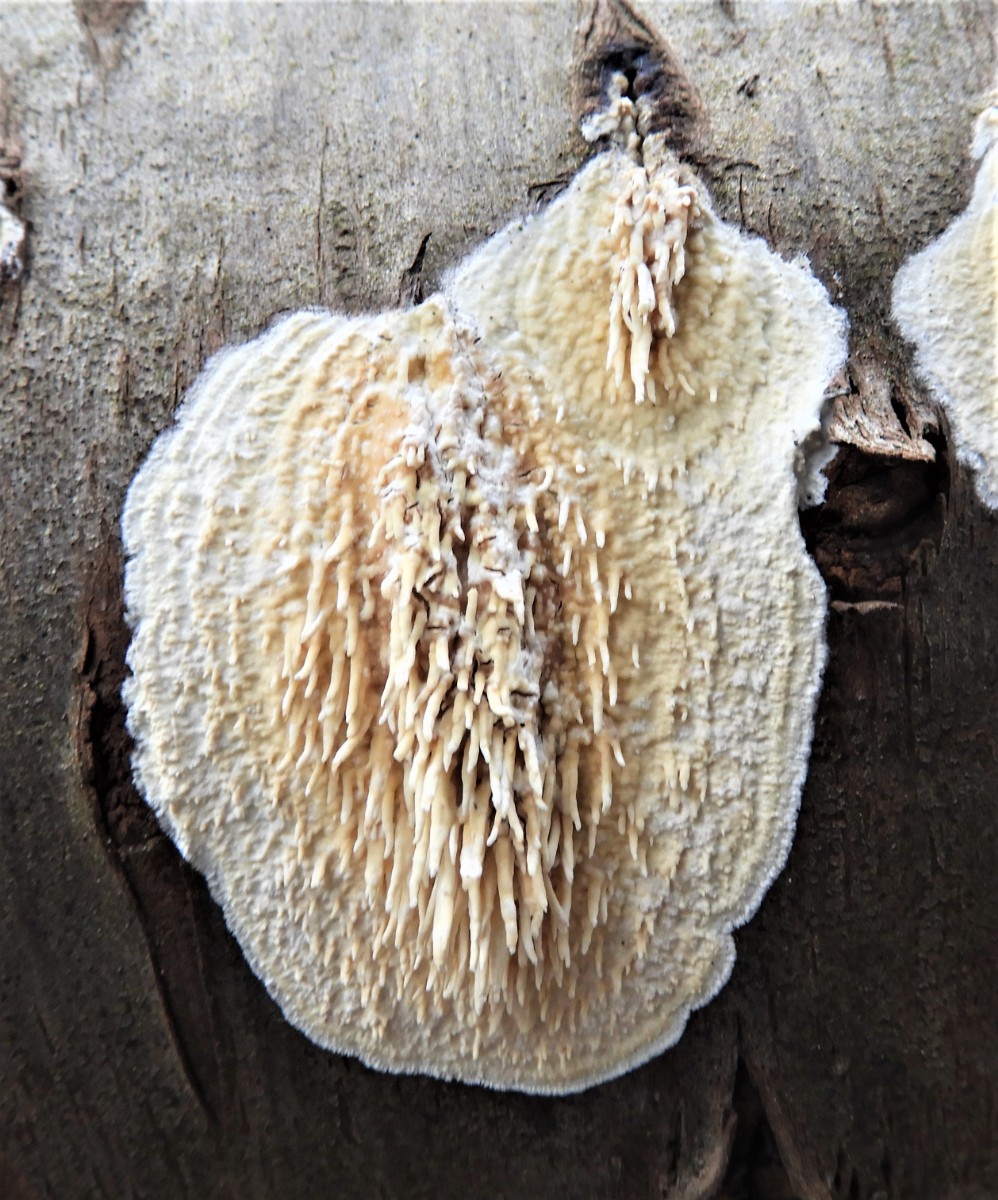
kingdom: Fungi
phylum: Basidiomycota
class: Agaricomycetes
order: Hymenochaetales
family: Schizoporaceae
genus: Xylodon
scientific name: Xylodon radula
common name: grovtandet kalkskind
